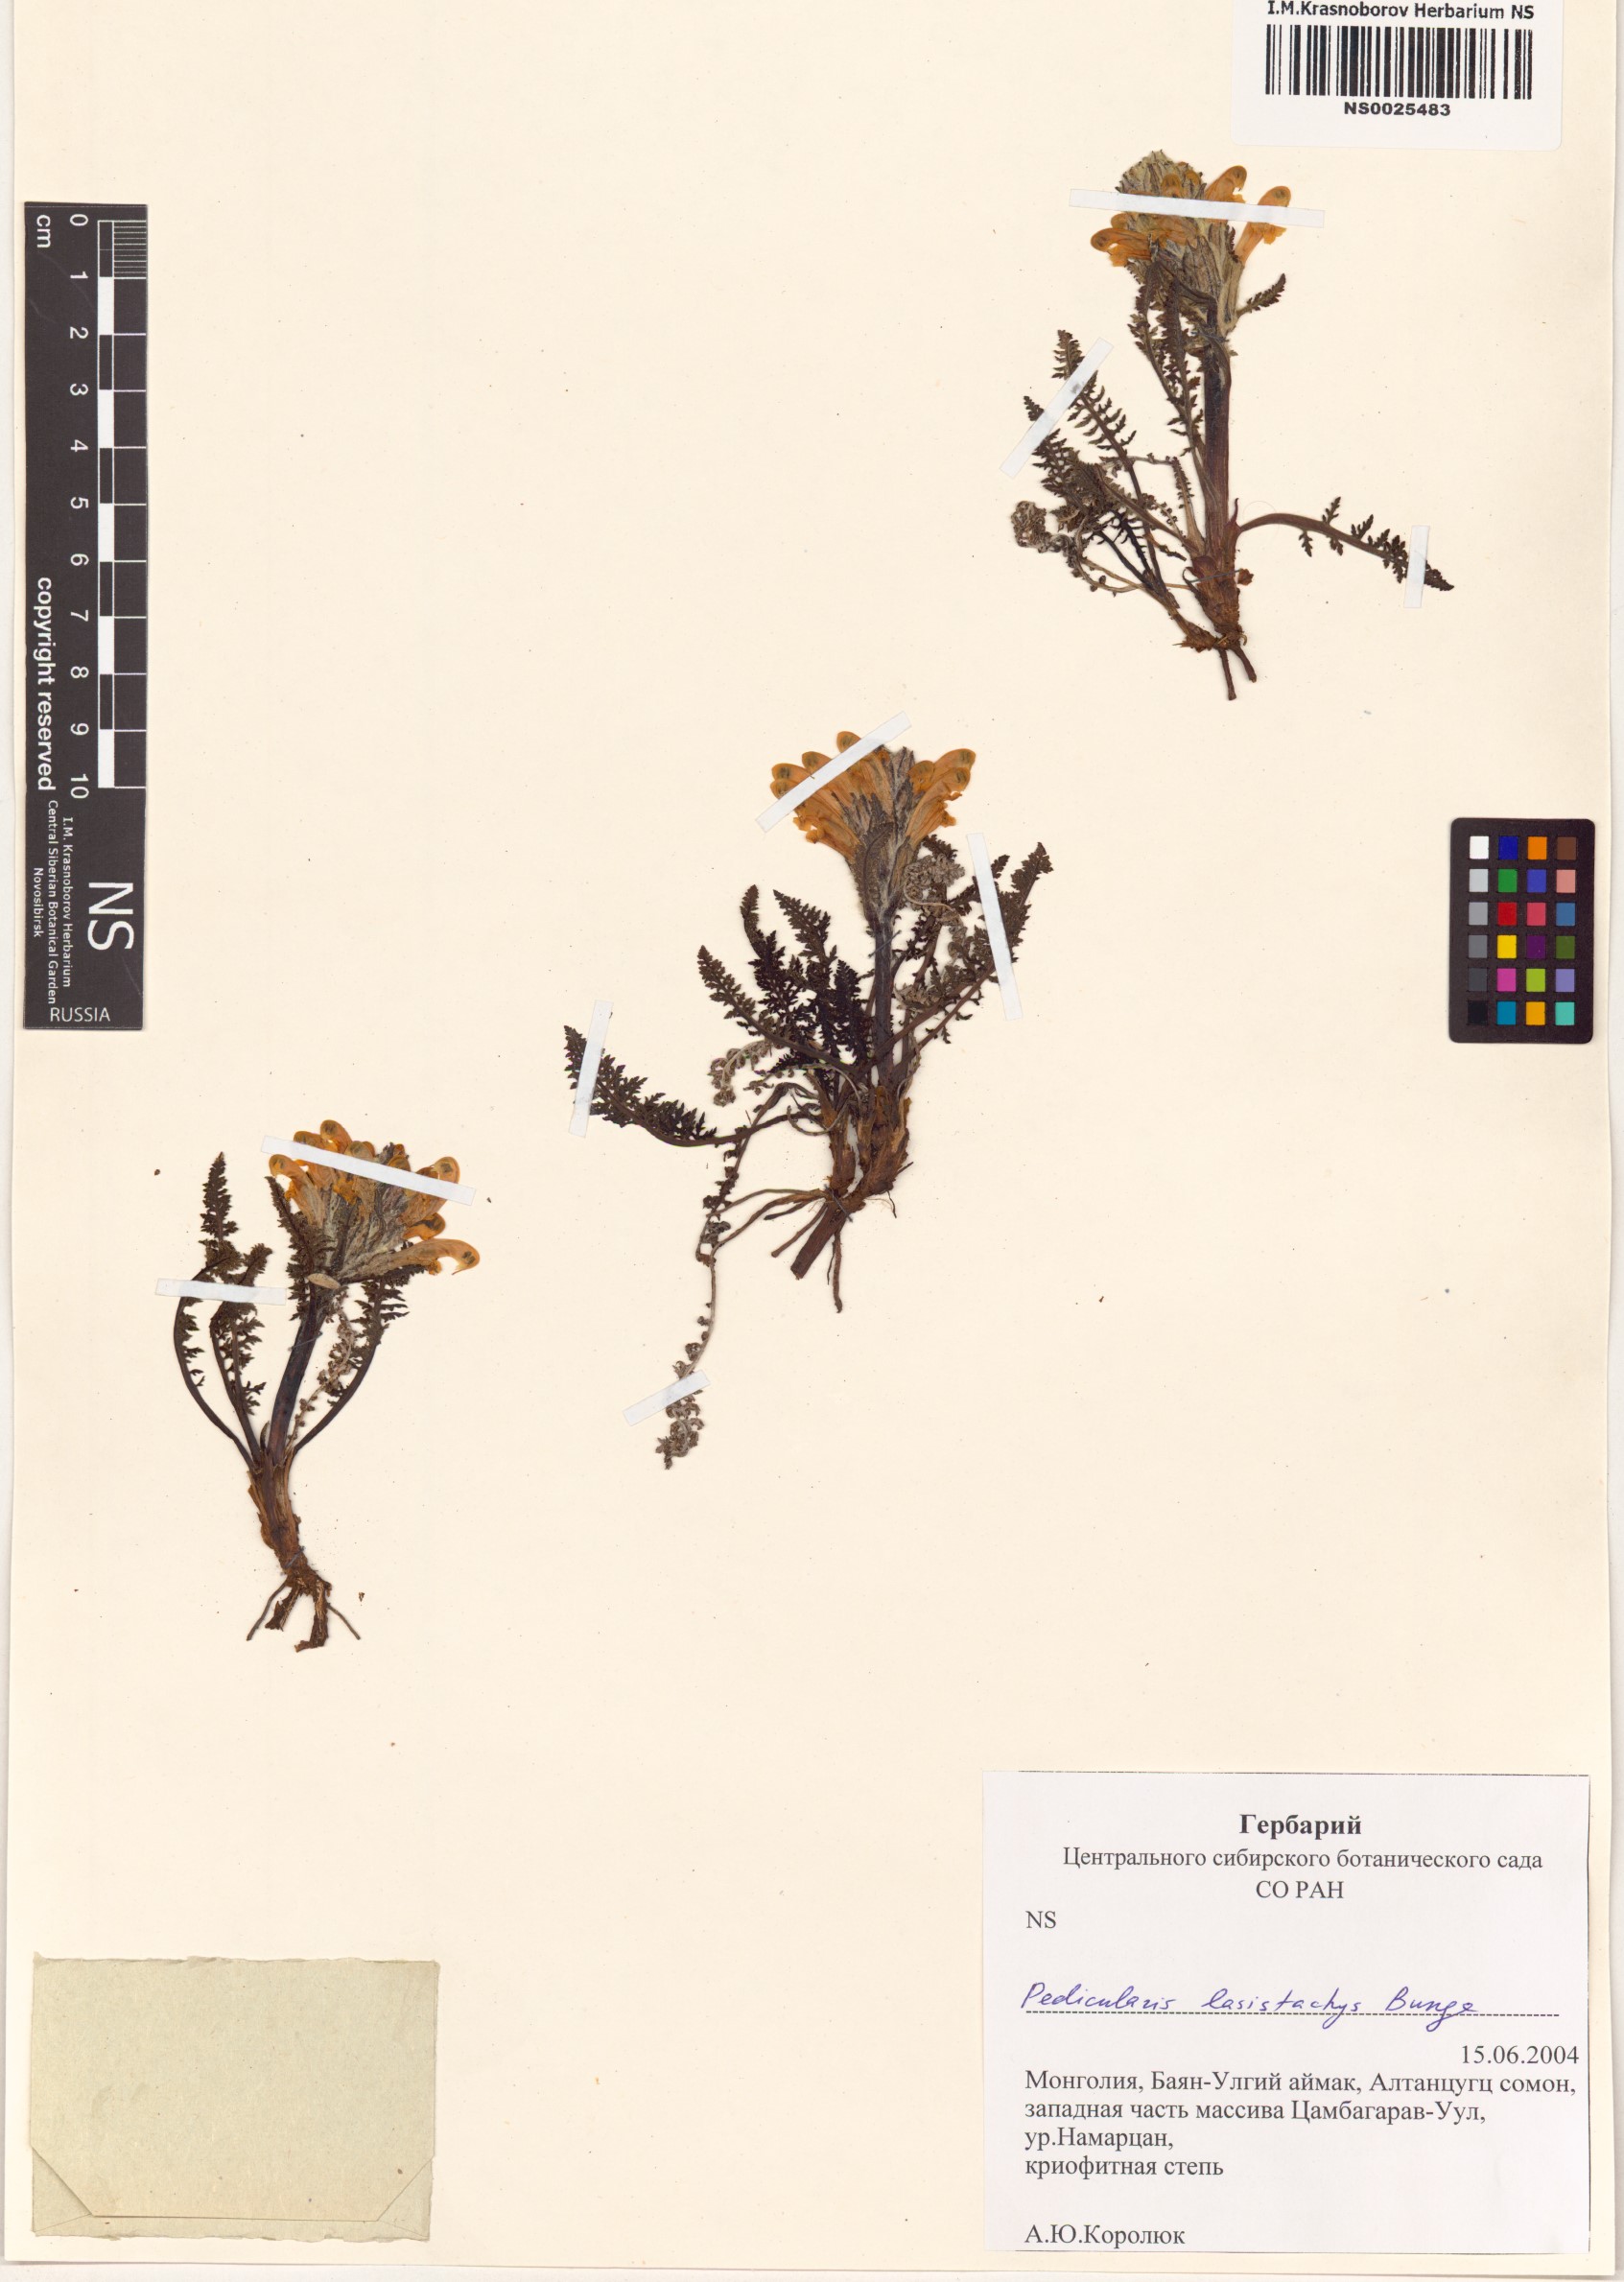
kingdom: Plantae
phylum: Tracheophyta
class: Magnoliopsida
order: Lamiales
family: Orobanchaceae
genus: Pedicularis
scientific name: Pedicularis lasiostachys
